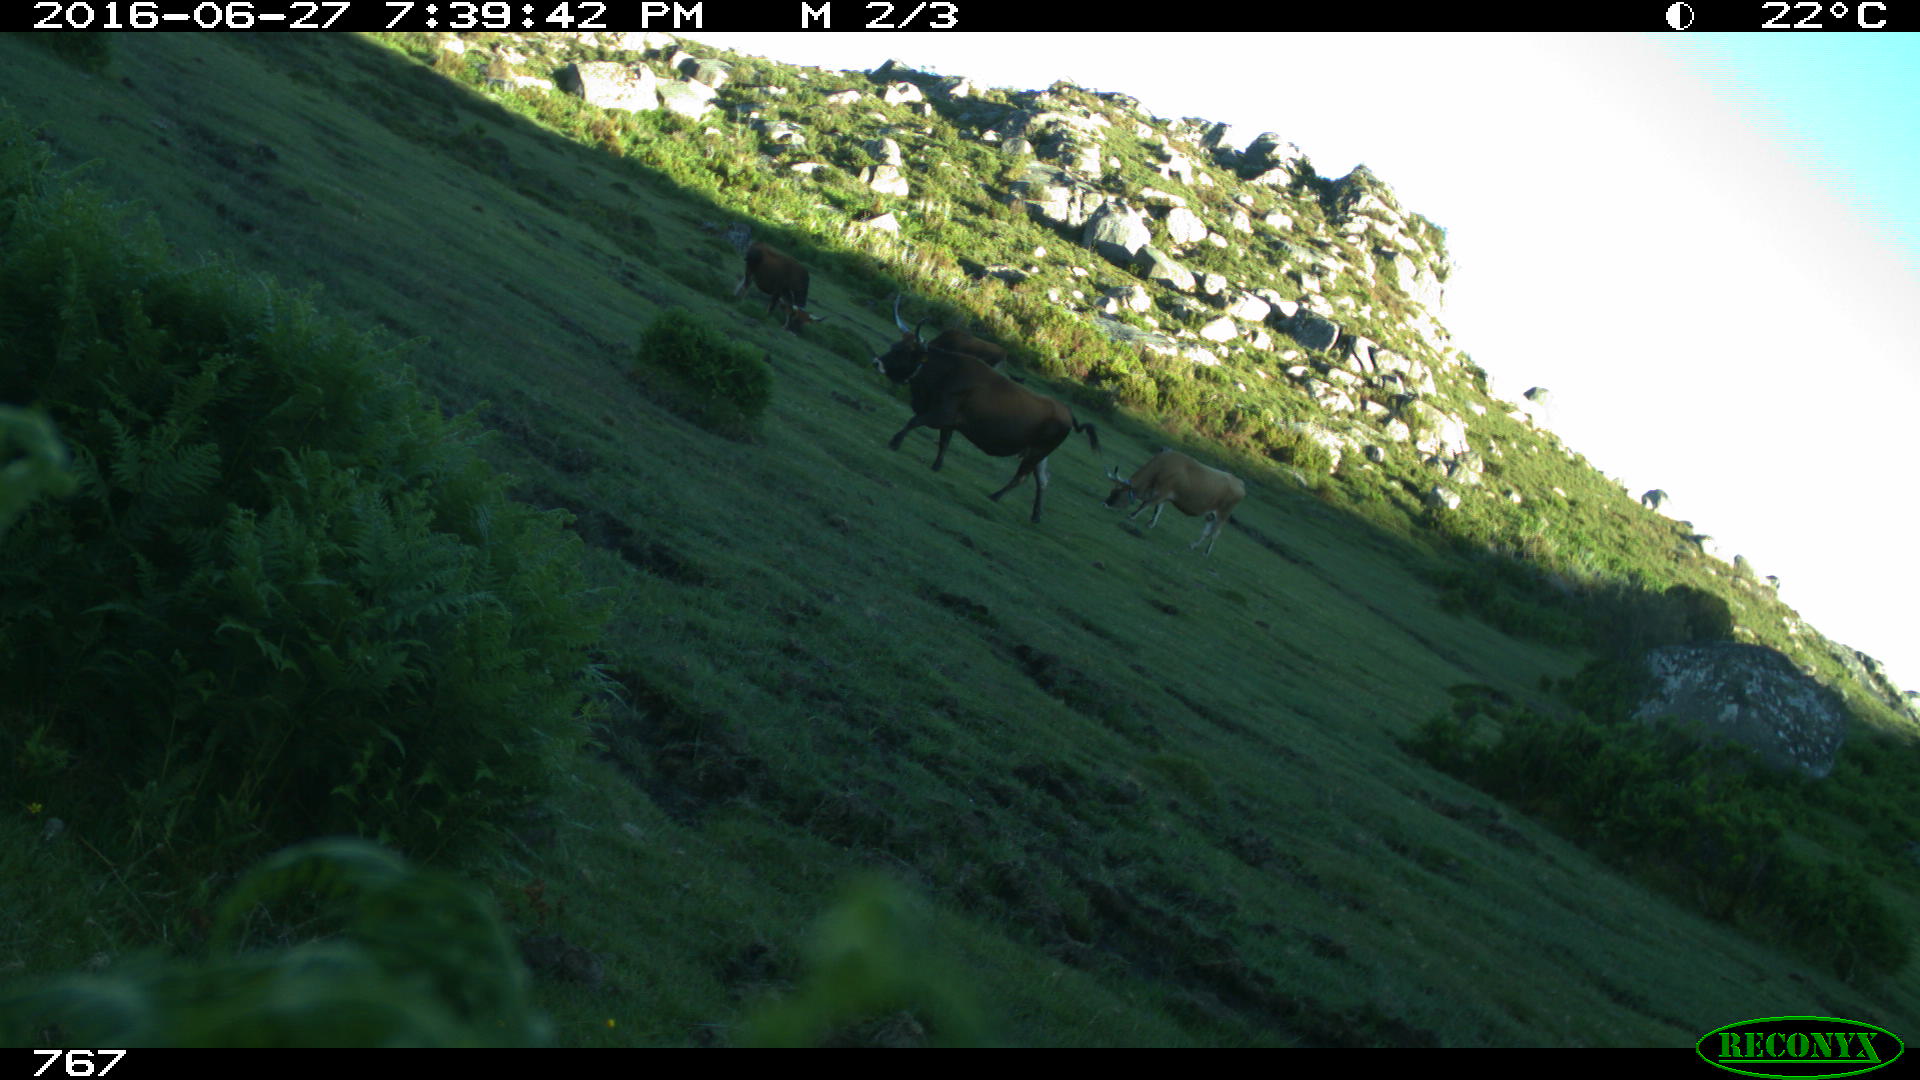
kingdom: Animalia
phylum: Chordata
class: Mammalia
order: Artiodactyla
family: Bovidae
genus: Bos
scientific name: Bos taurus
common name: Domesticated cattle
